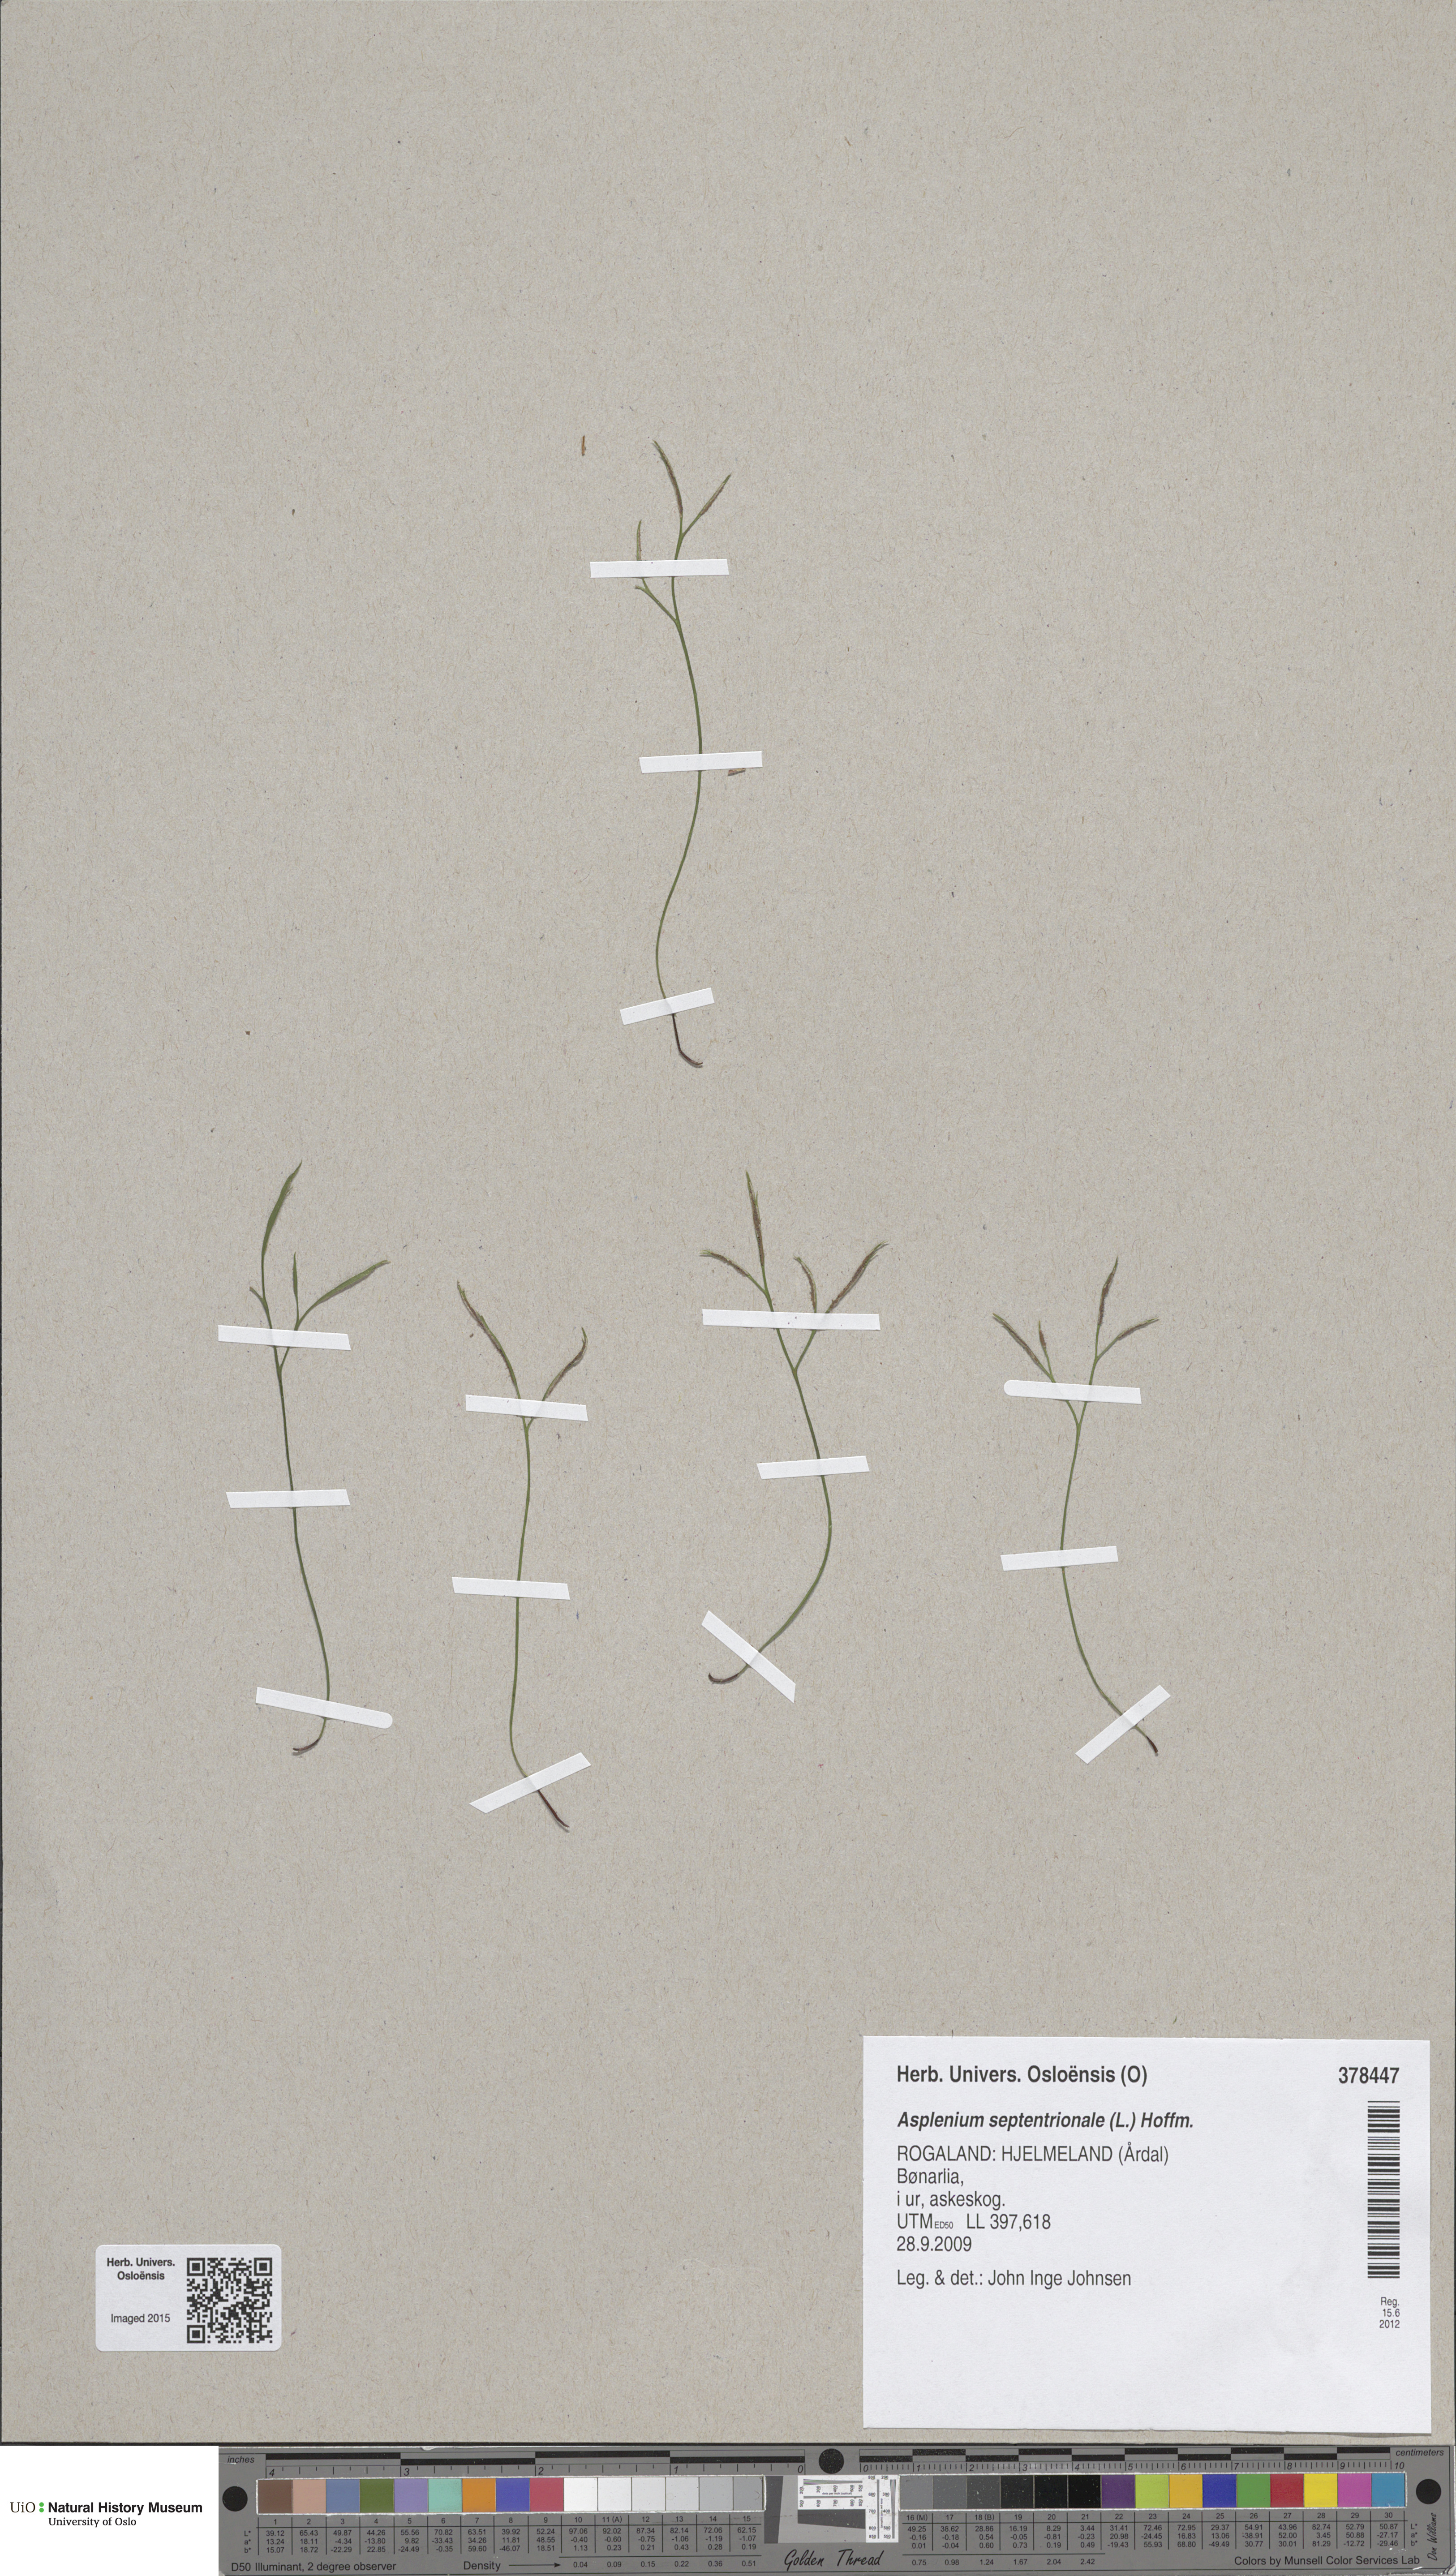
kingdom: Plantae
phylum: Tracheophyta
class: Polypodiopsida
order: Polypodiales
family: Aspleniaceae
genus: Asplenium
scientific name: Asplenium septentrionale
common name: Forked spleenwort
